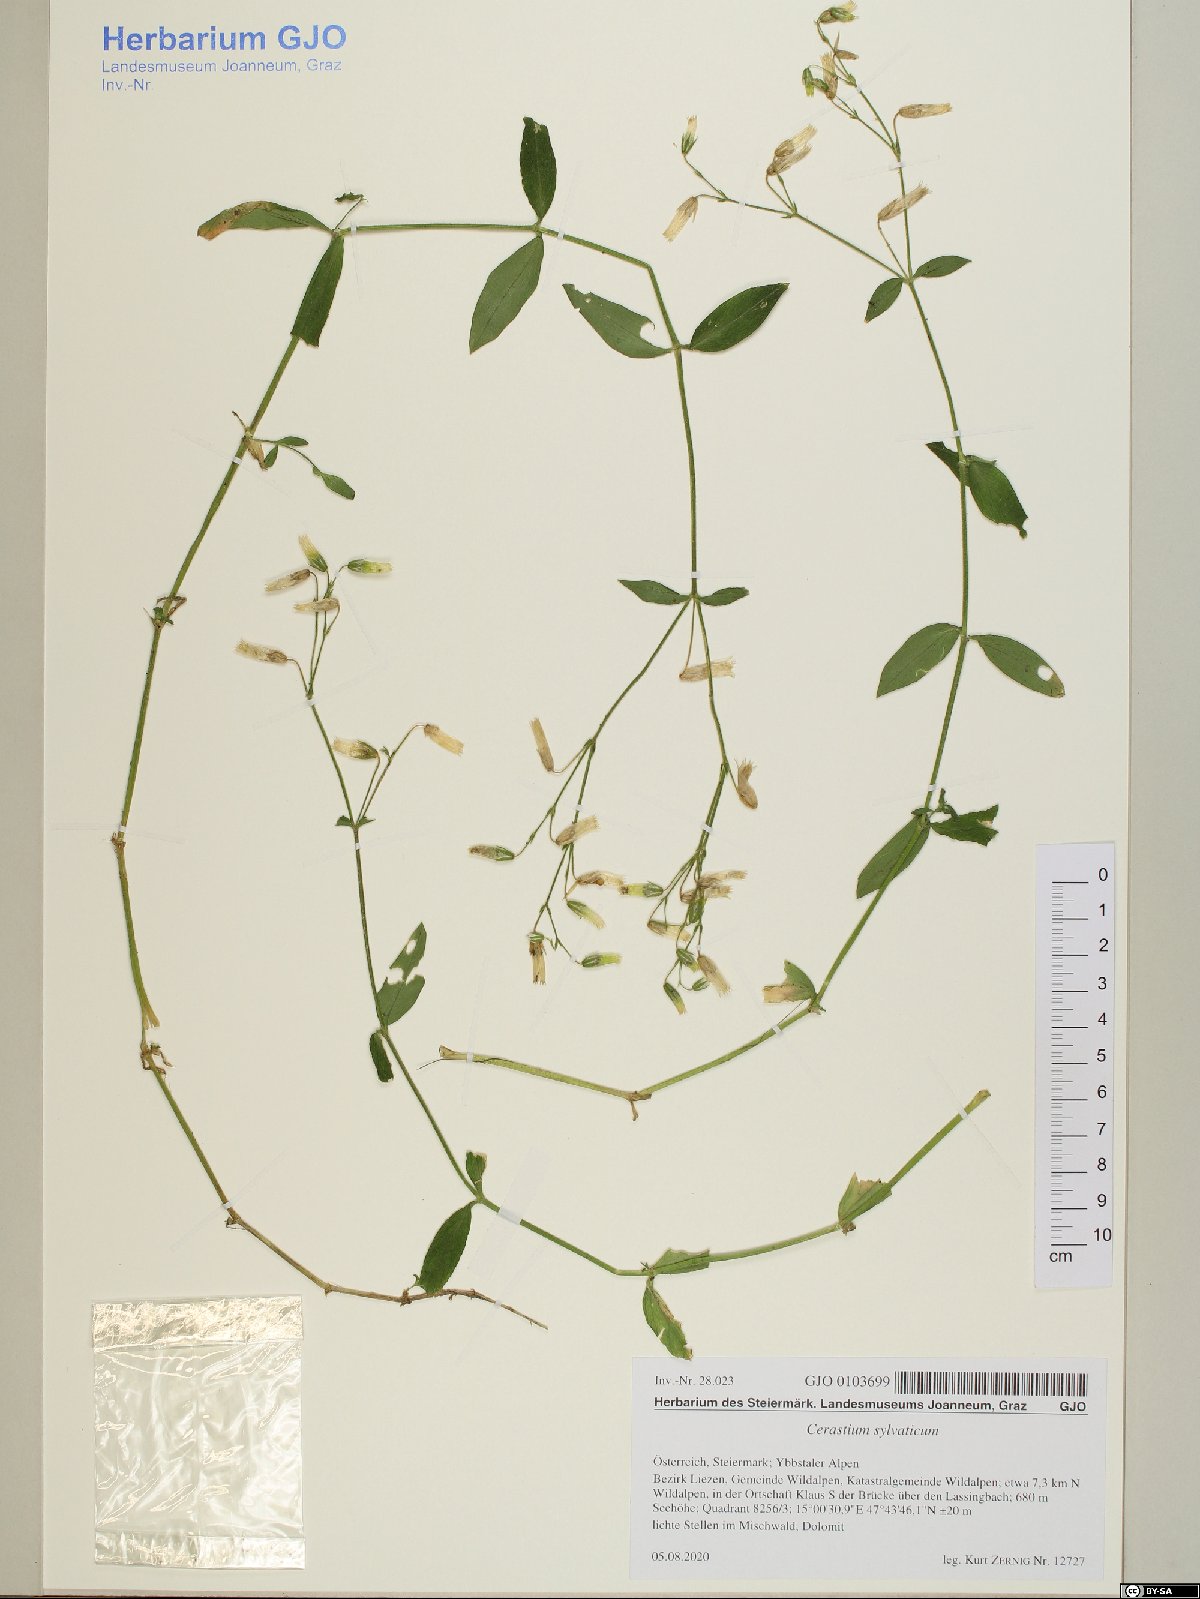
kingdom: Plantae
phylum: Tracheophyta
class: Magnoliopsida
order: Caryophyllales
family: Caryophyllaceae
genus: Cerastium
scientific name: Cerastium sylvaticum
